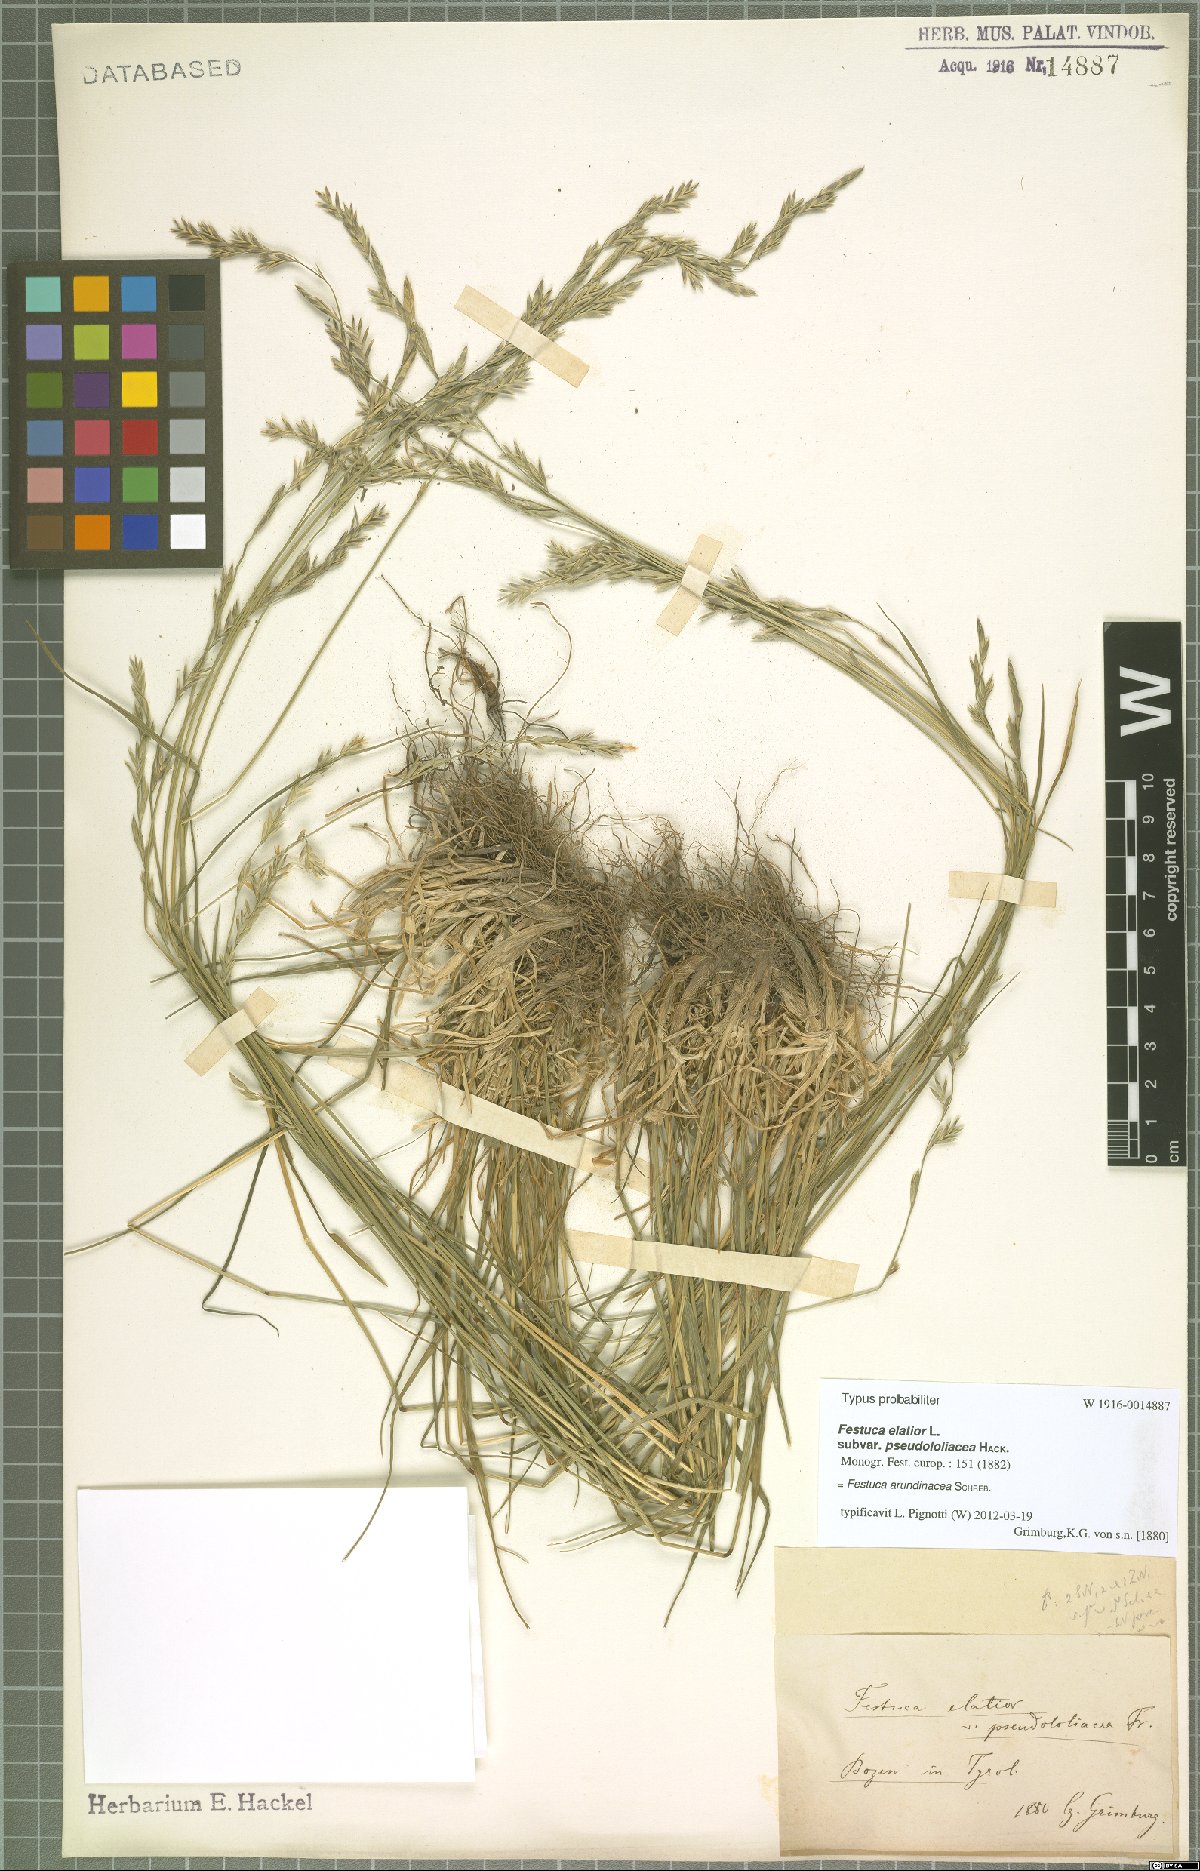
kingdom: Plantae
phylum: Tracheophyta
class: Liliopsida
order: Poales
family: Poaceae
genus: Lolium
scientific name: Lolium arundinaceum
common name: Reed fescue
